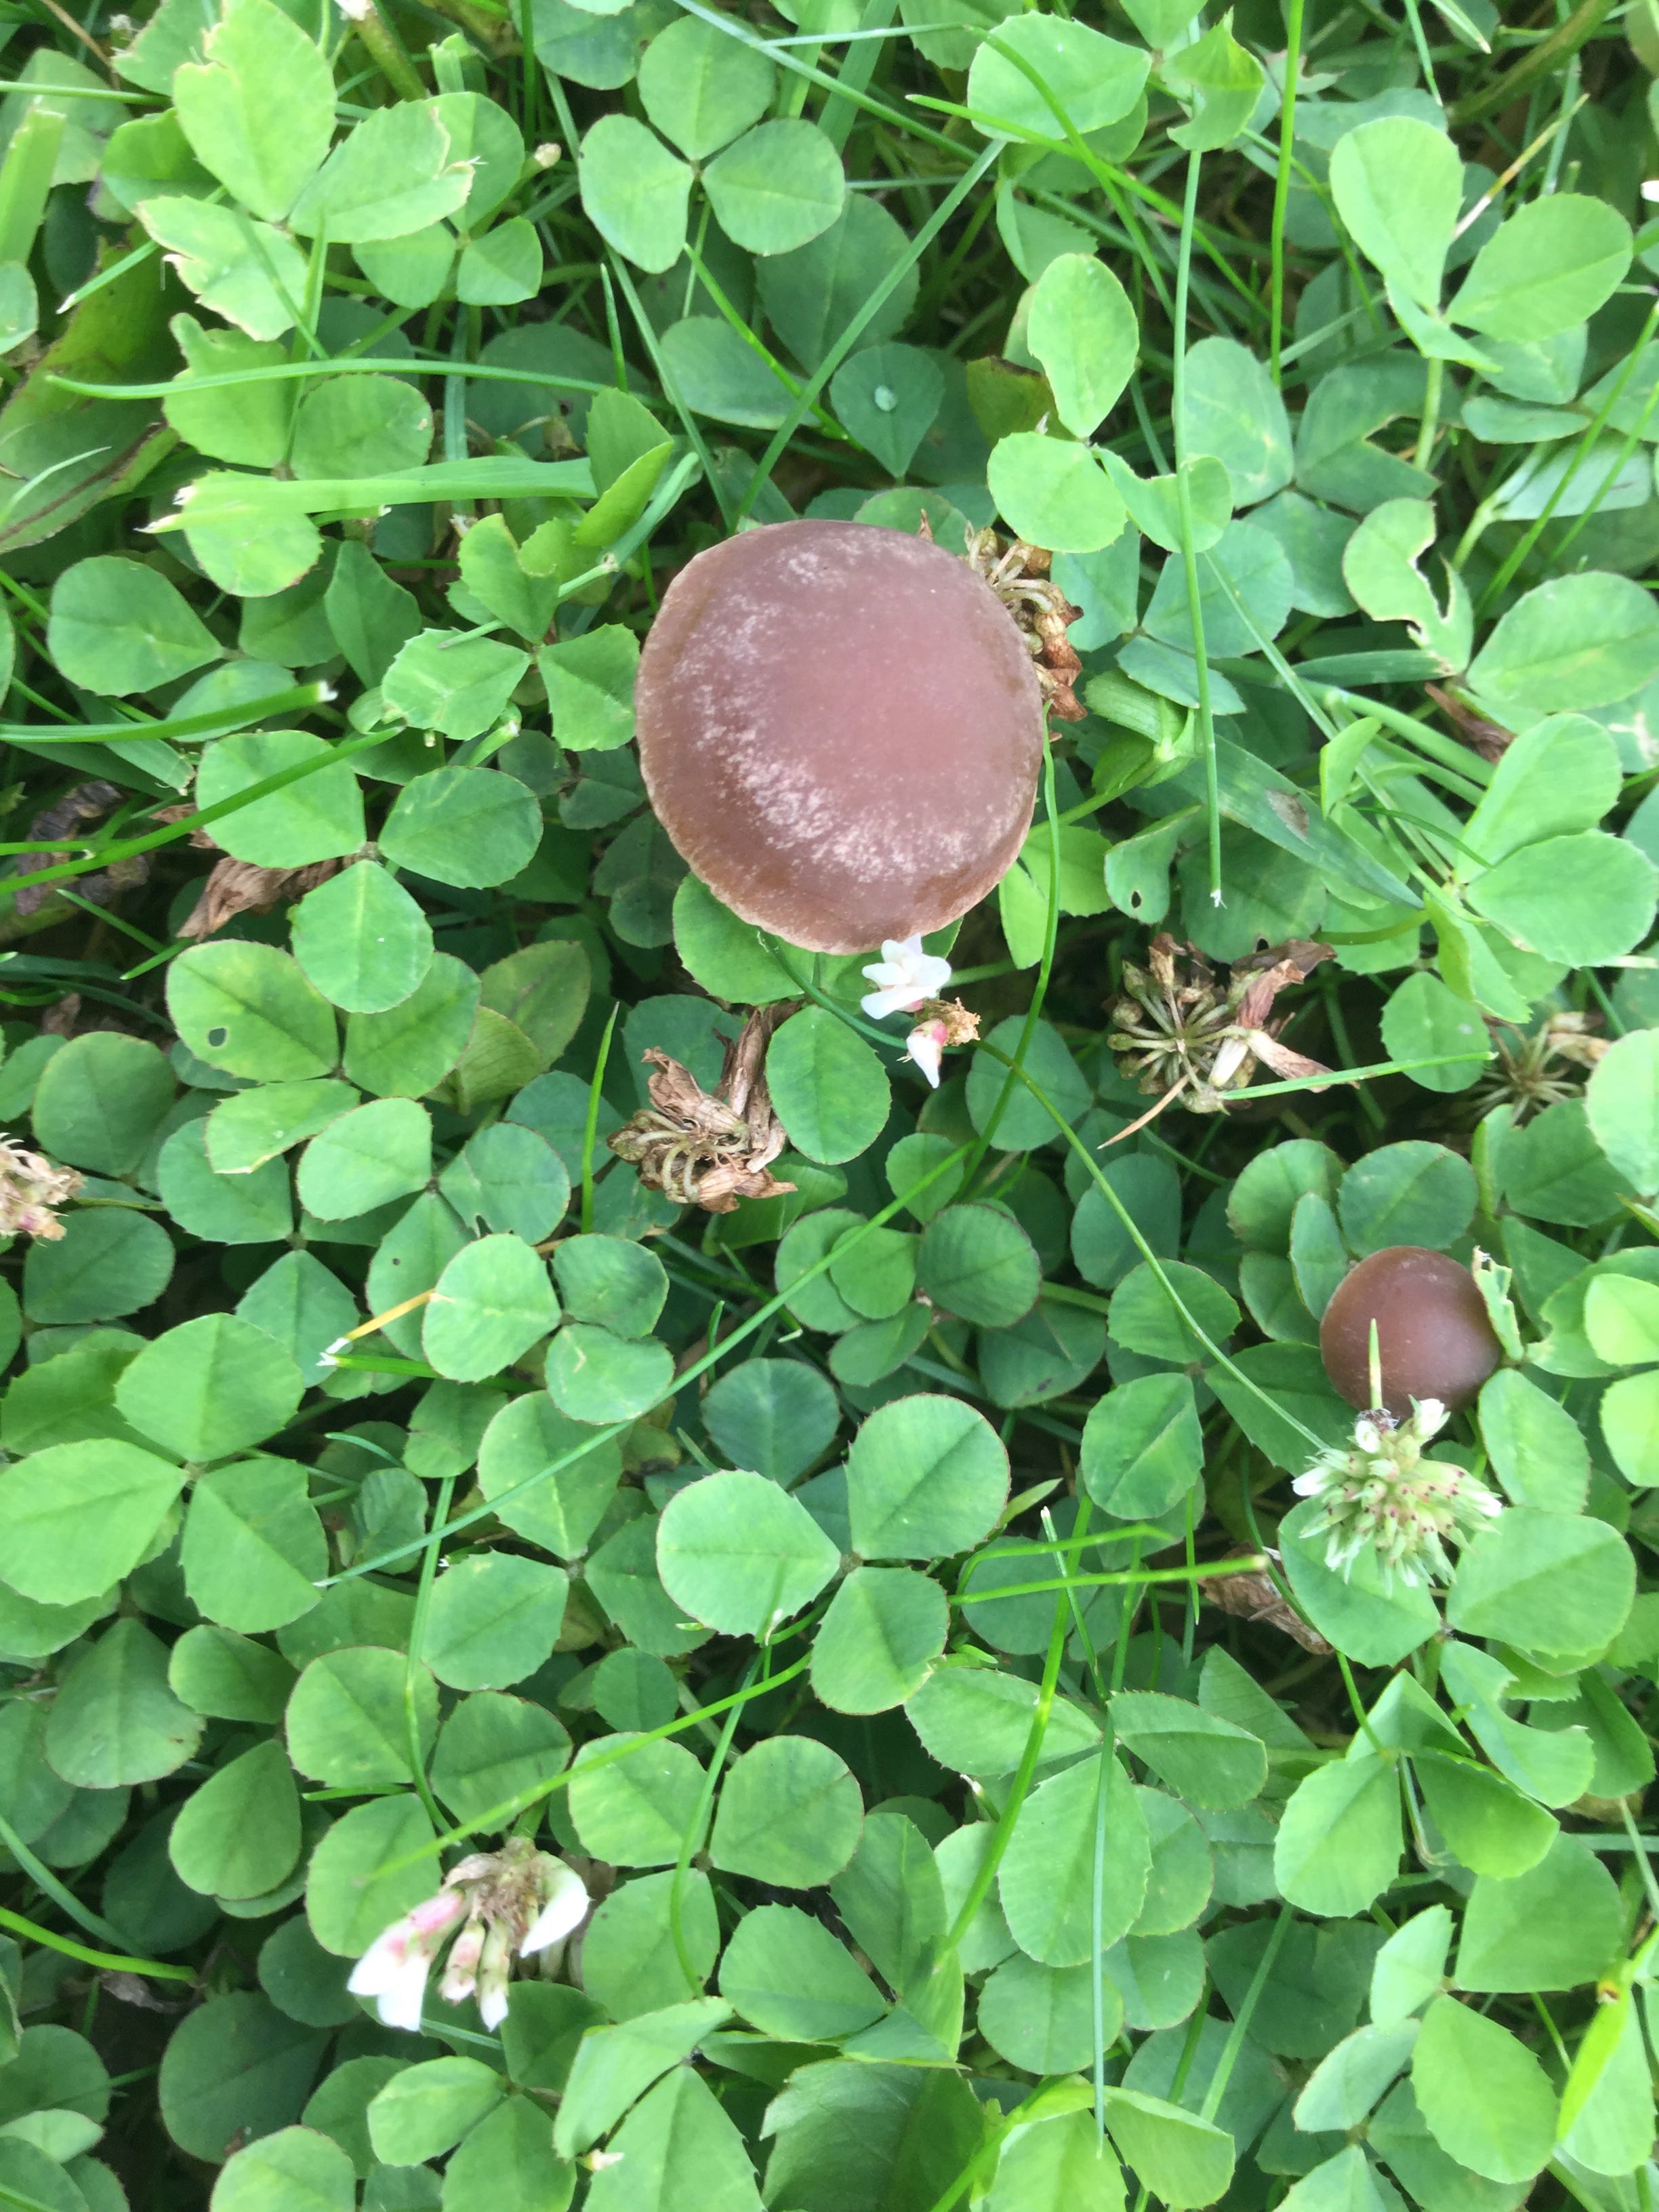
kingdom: Fungi
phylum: Basidiomycota
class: Agaricomycetes
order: Agaricales
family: Bolbitiaceae
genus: Panaeolina
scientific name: Panaeolina foenisecii
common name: høslætsvamp
